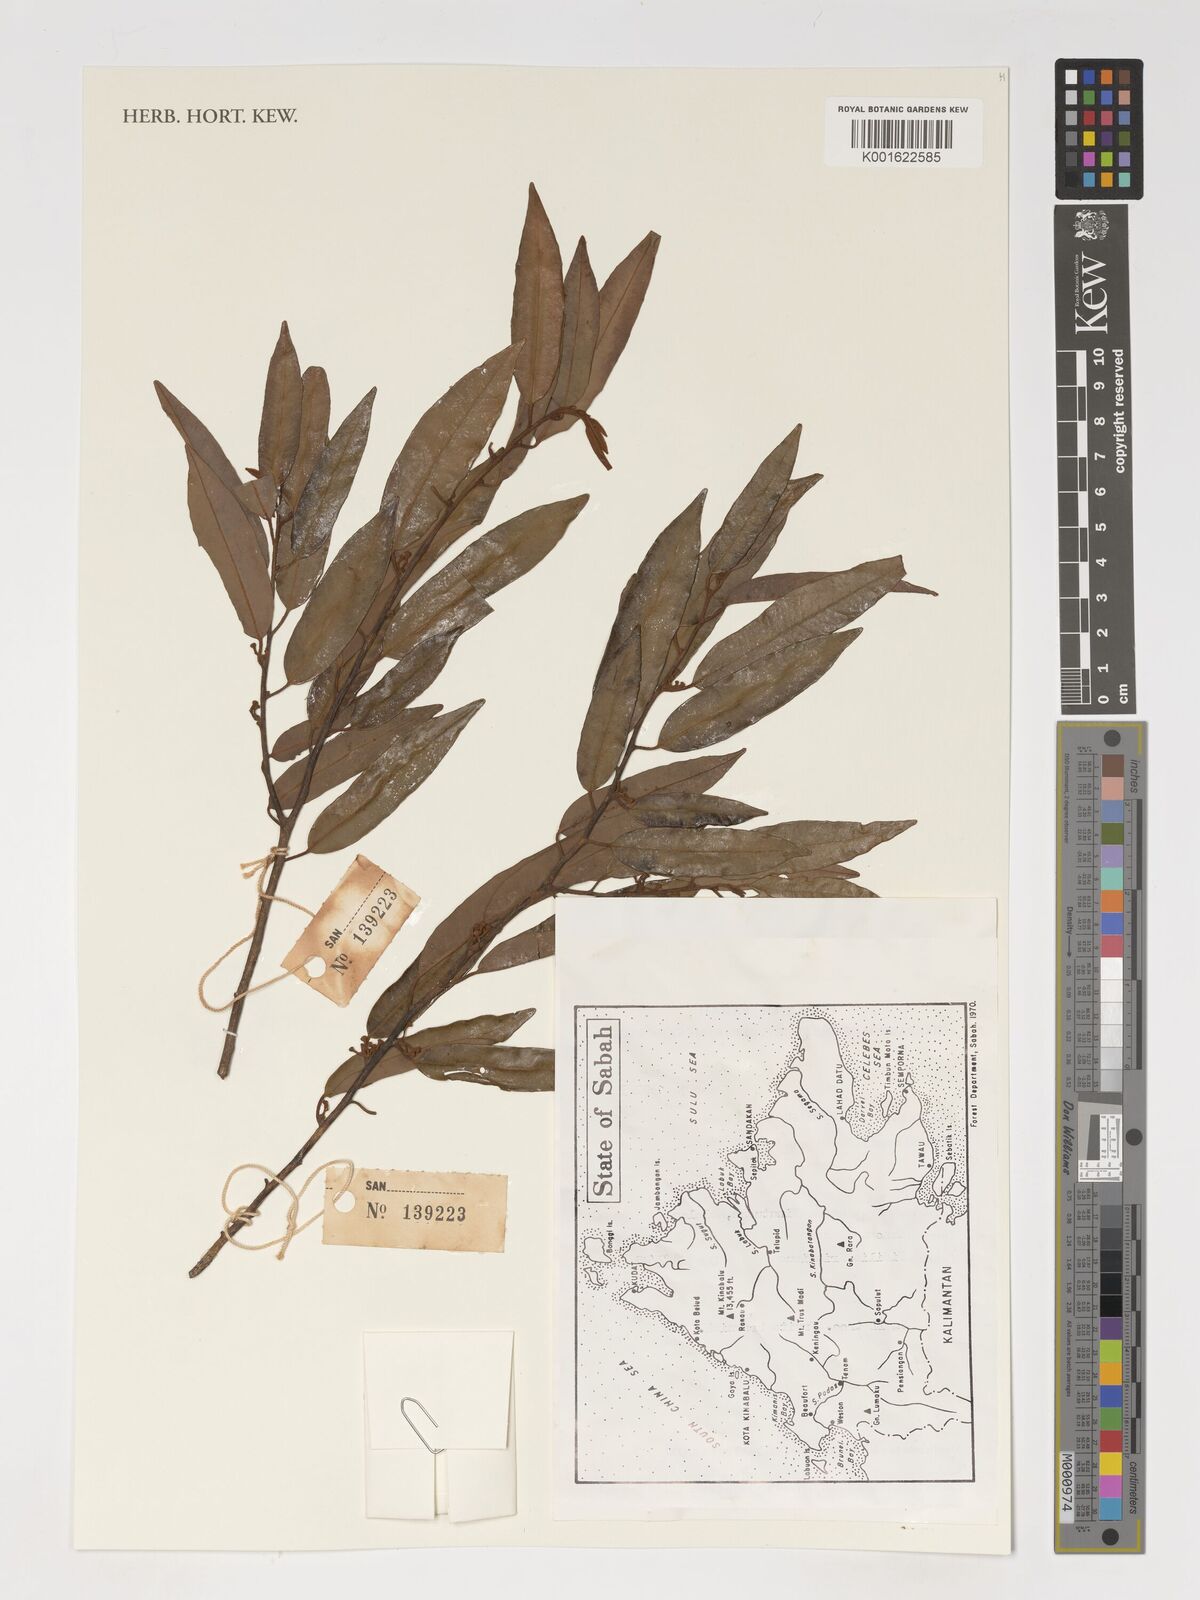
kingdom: Plantae
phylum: Tracheophyta
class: Magnoliopsida
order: Magnoliales
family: Myristicaceae
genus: Knema
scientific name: Knema curtisii
